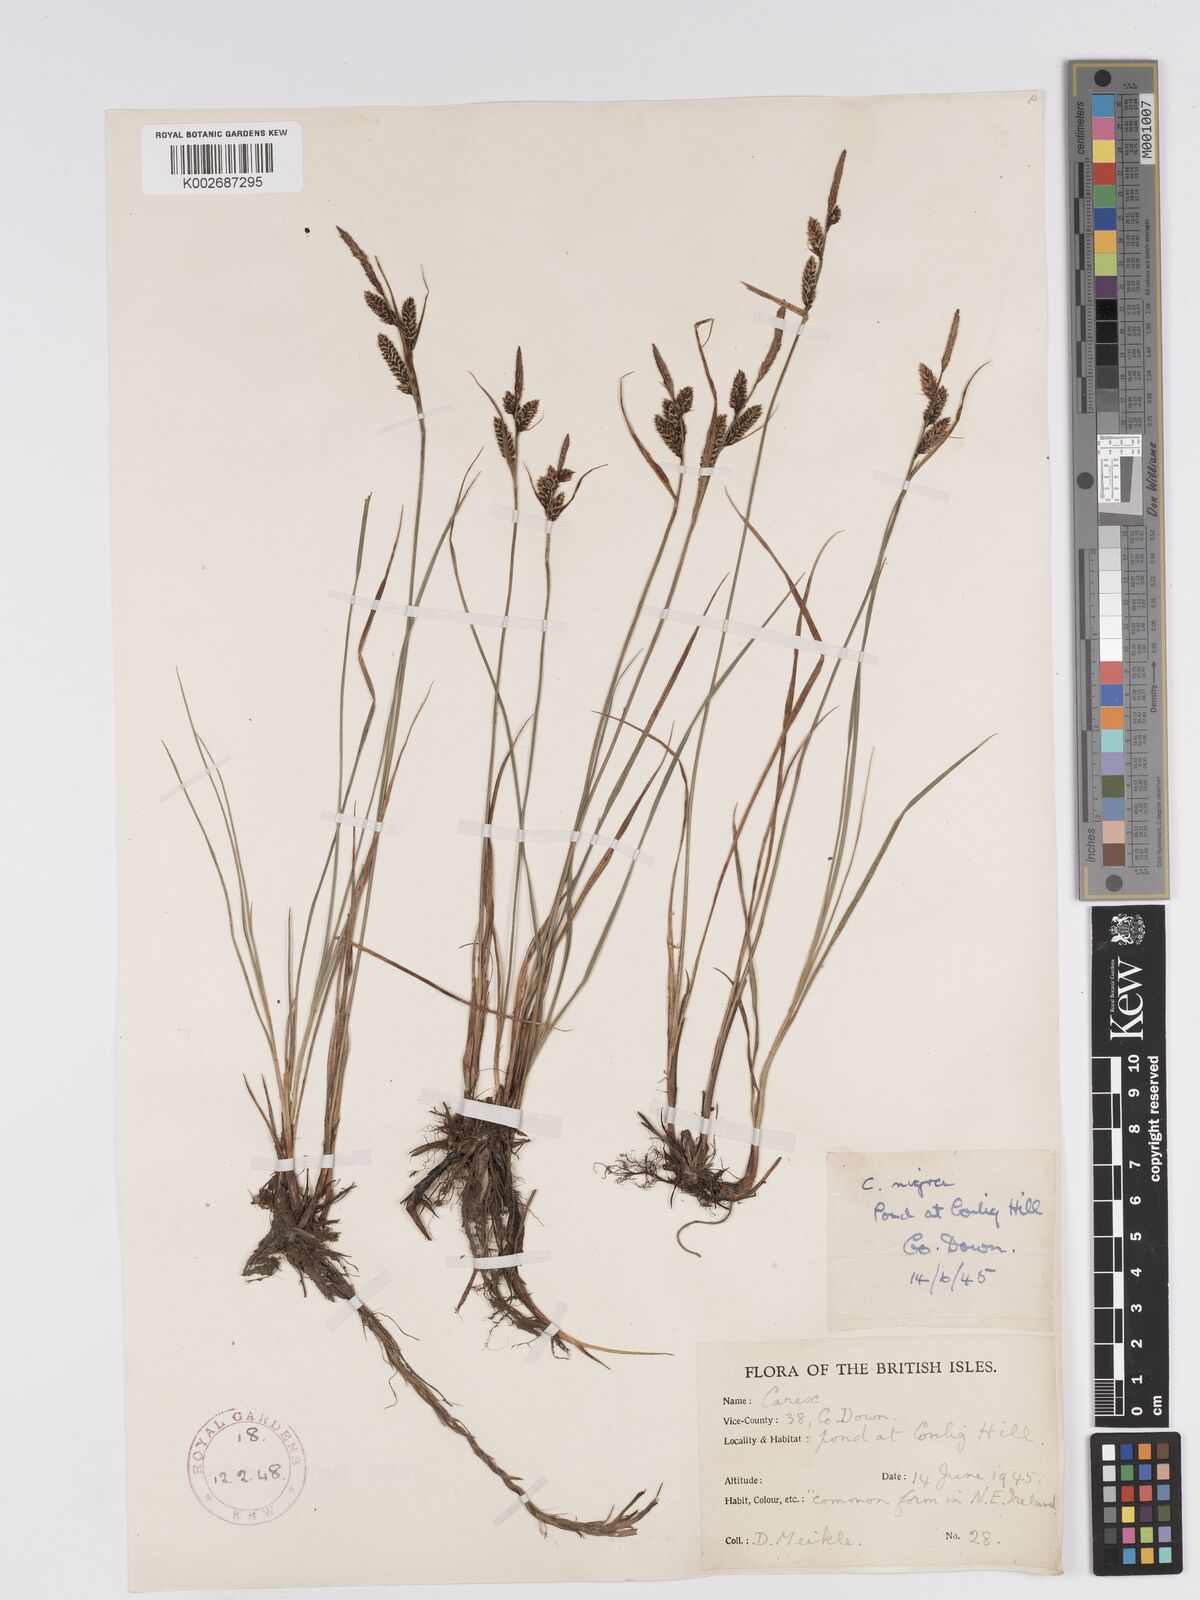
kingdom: Plantae
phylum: Tracheophyta
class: Liliopsida
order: Poales
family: Cyperaceae
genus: Carex
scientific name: Carex nigra
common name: Common sedge
